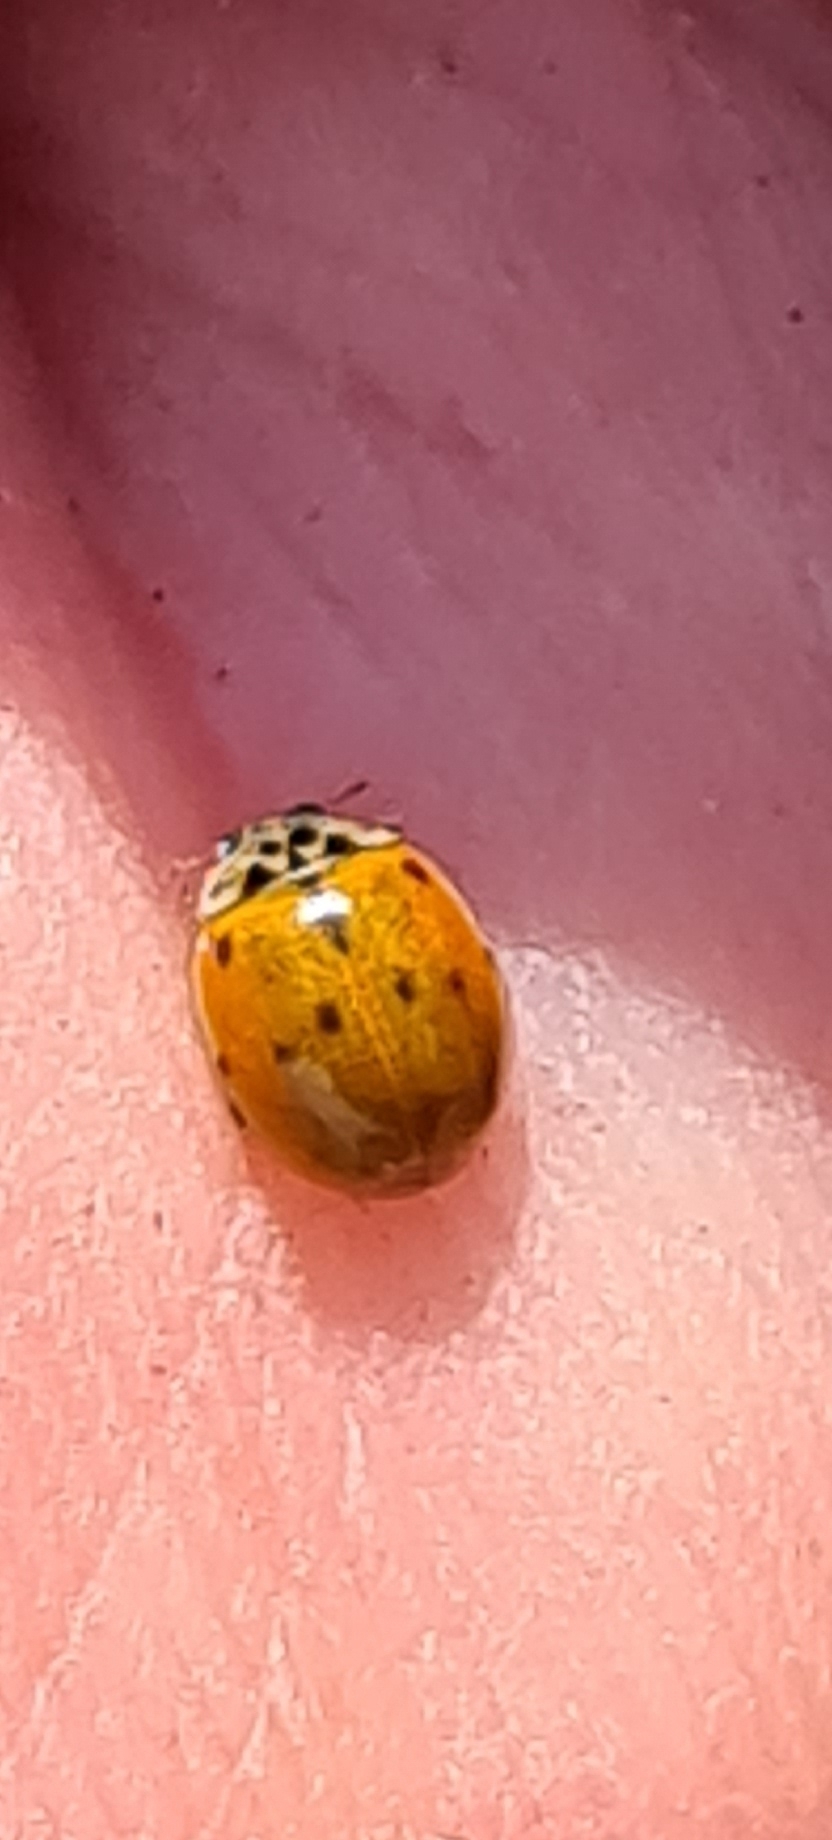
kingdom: Animalia
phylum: Arthropoda
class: Insecta
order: Coleoptera
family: Coccinellidae
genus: Adalia
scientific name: Adalia decempunctata
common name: Tiplettet mariehøne
